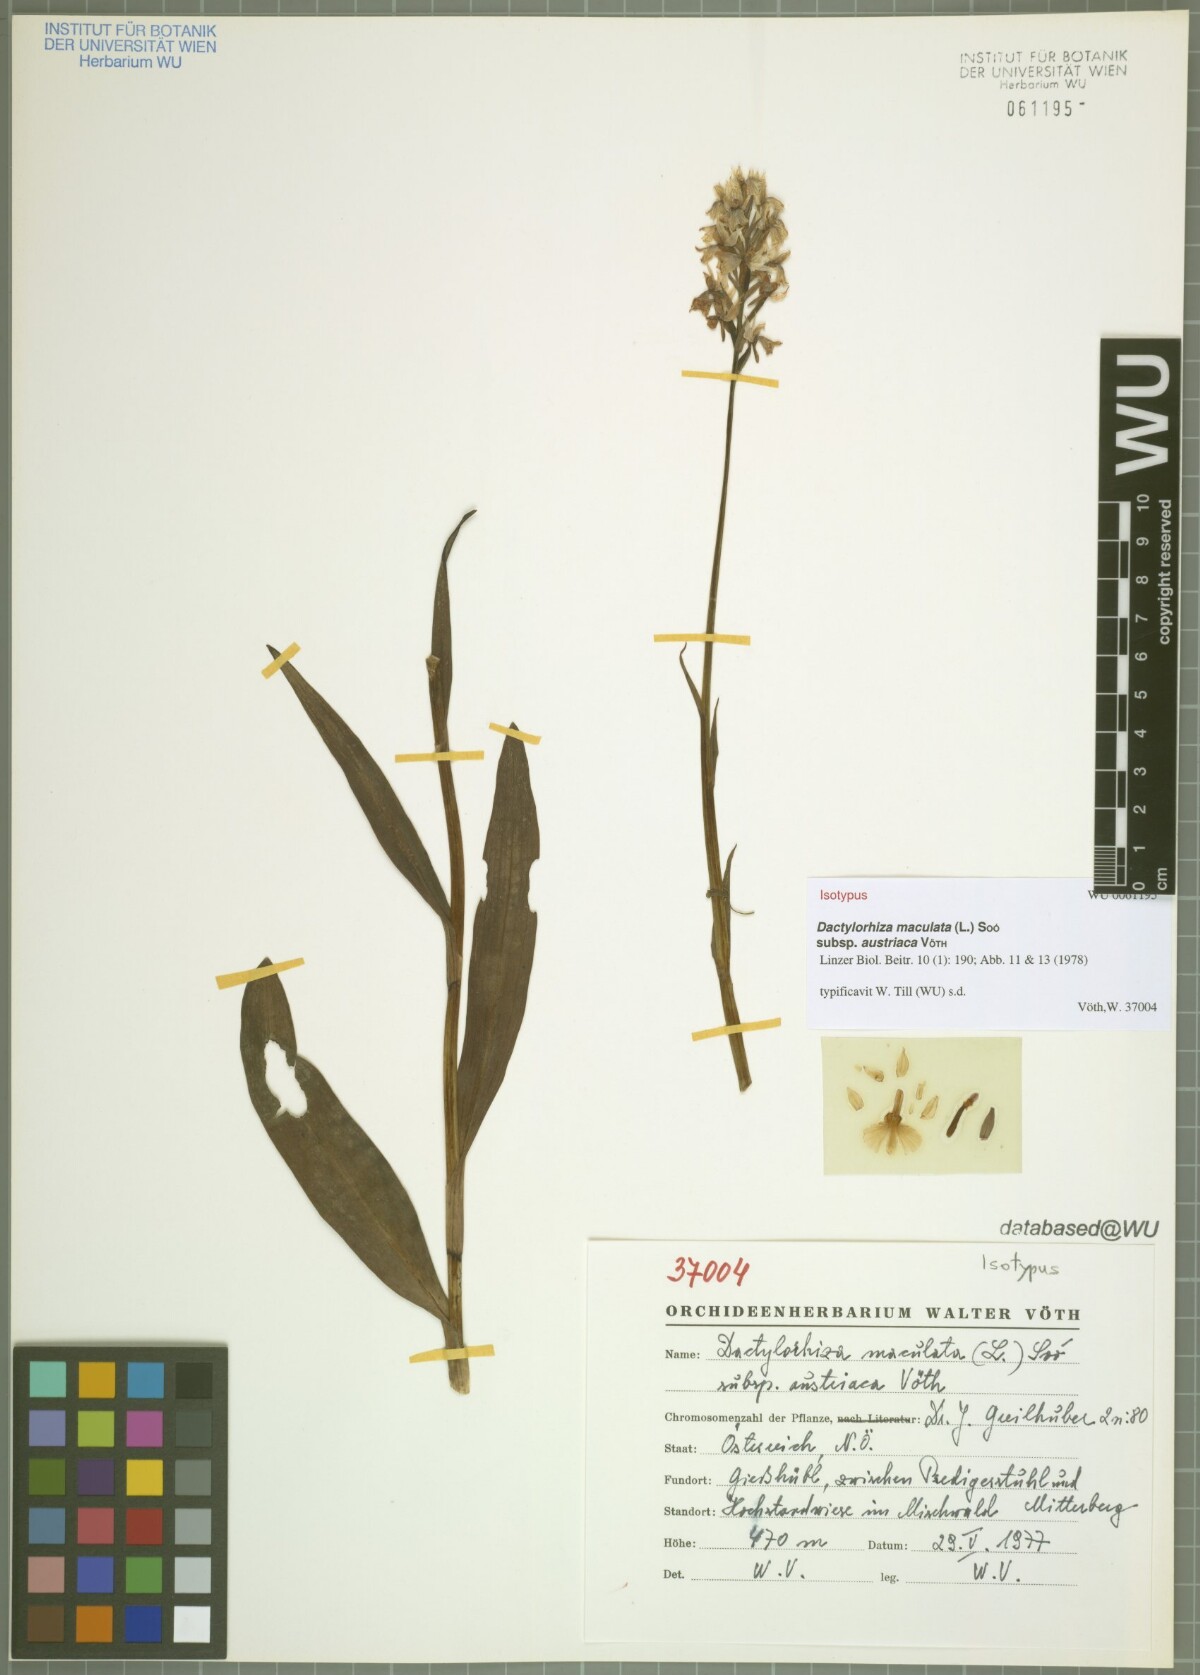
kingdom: Plantae
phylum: Tracheophyta
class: Liliopsida
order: Asparagales
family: Orchidaceae
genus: Dactylorhiza
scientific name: Dactylorhiza maculata
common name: Heath spotted-orchid
